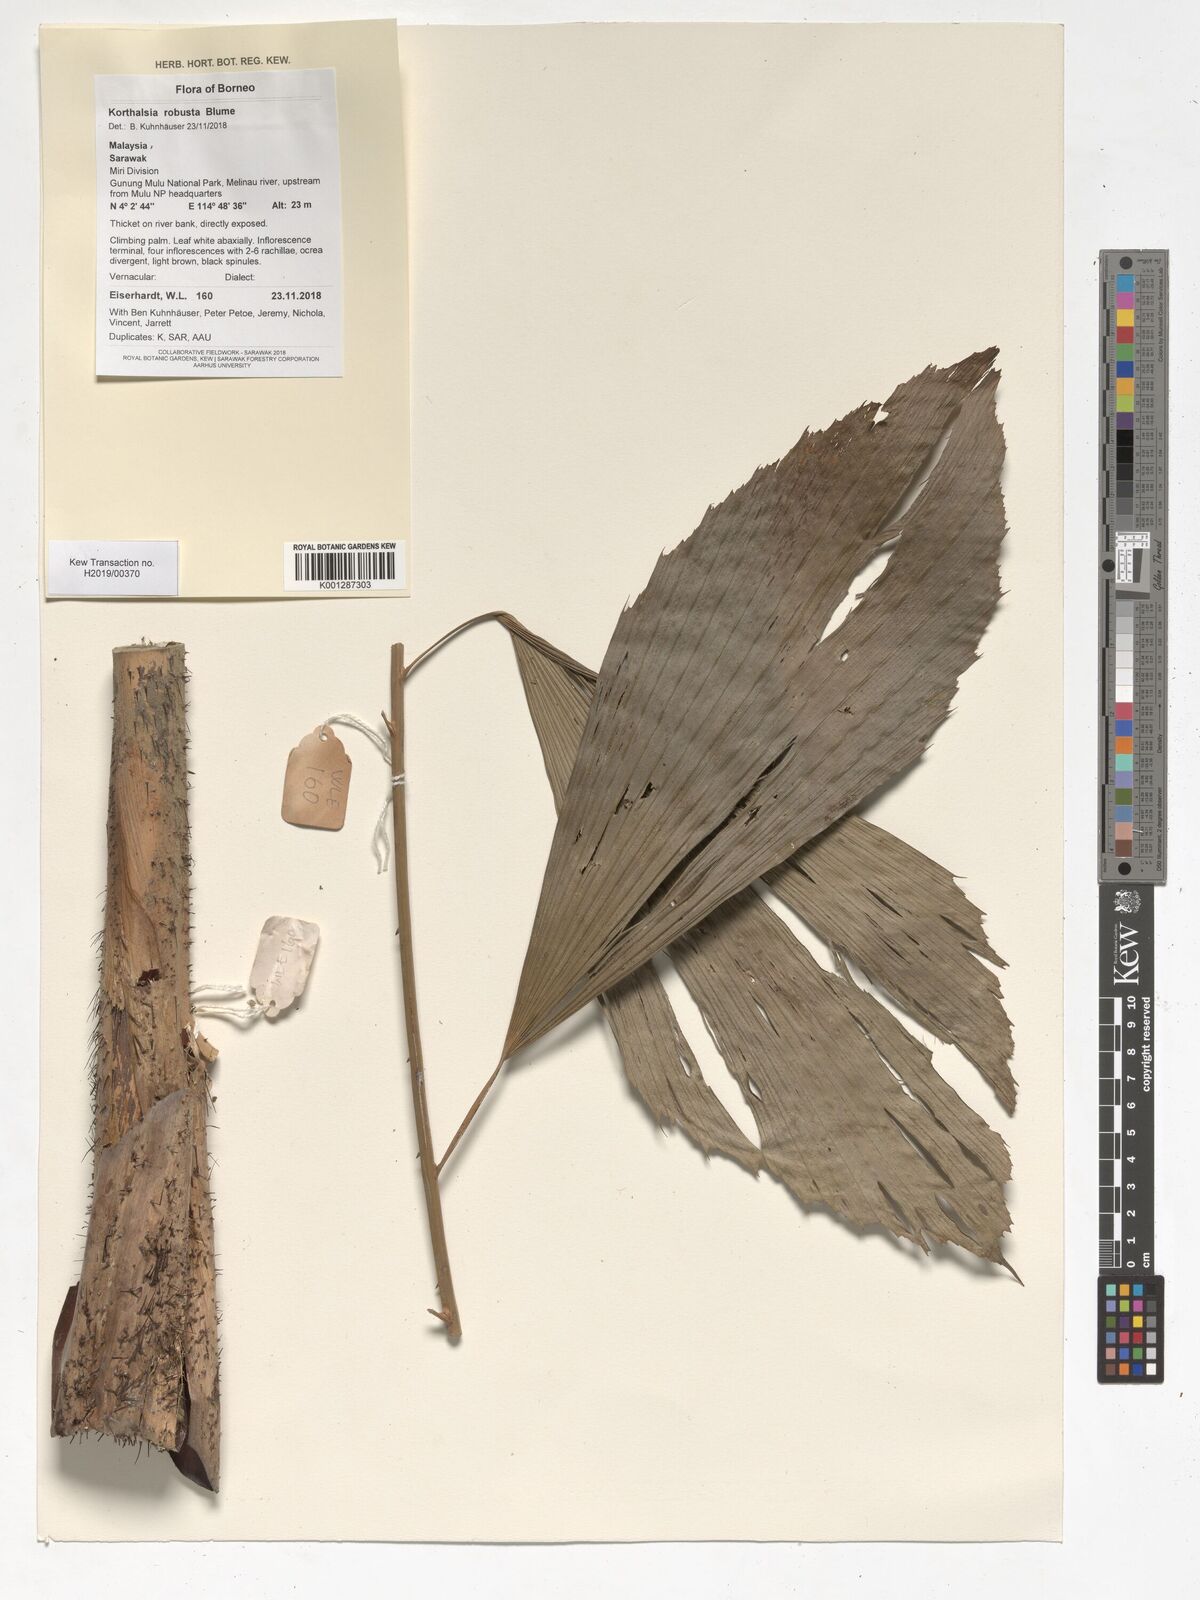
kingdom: Plantae
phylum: Tracheophyta
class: Liliopsida
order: Arecales
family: Arecaceae
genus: Korthalsia
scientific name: Korthalsia robusta
